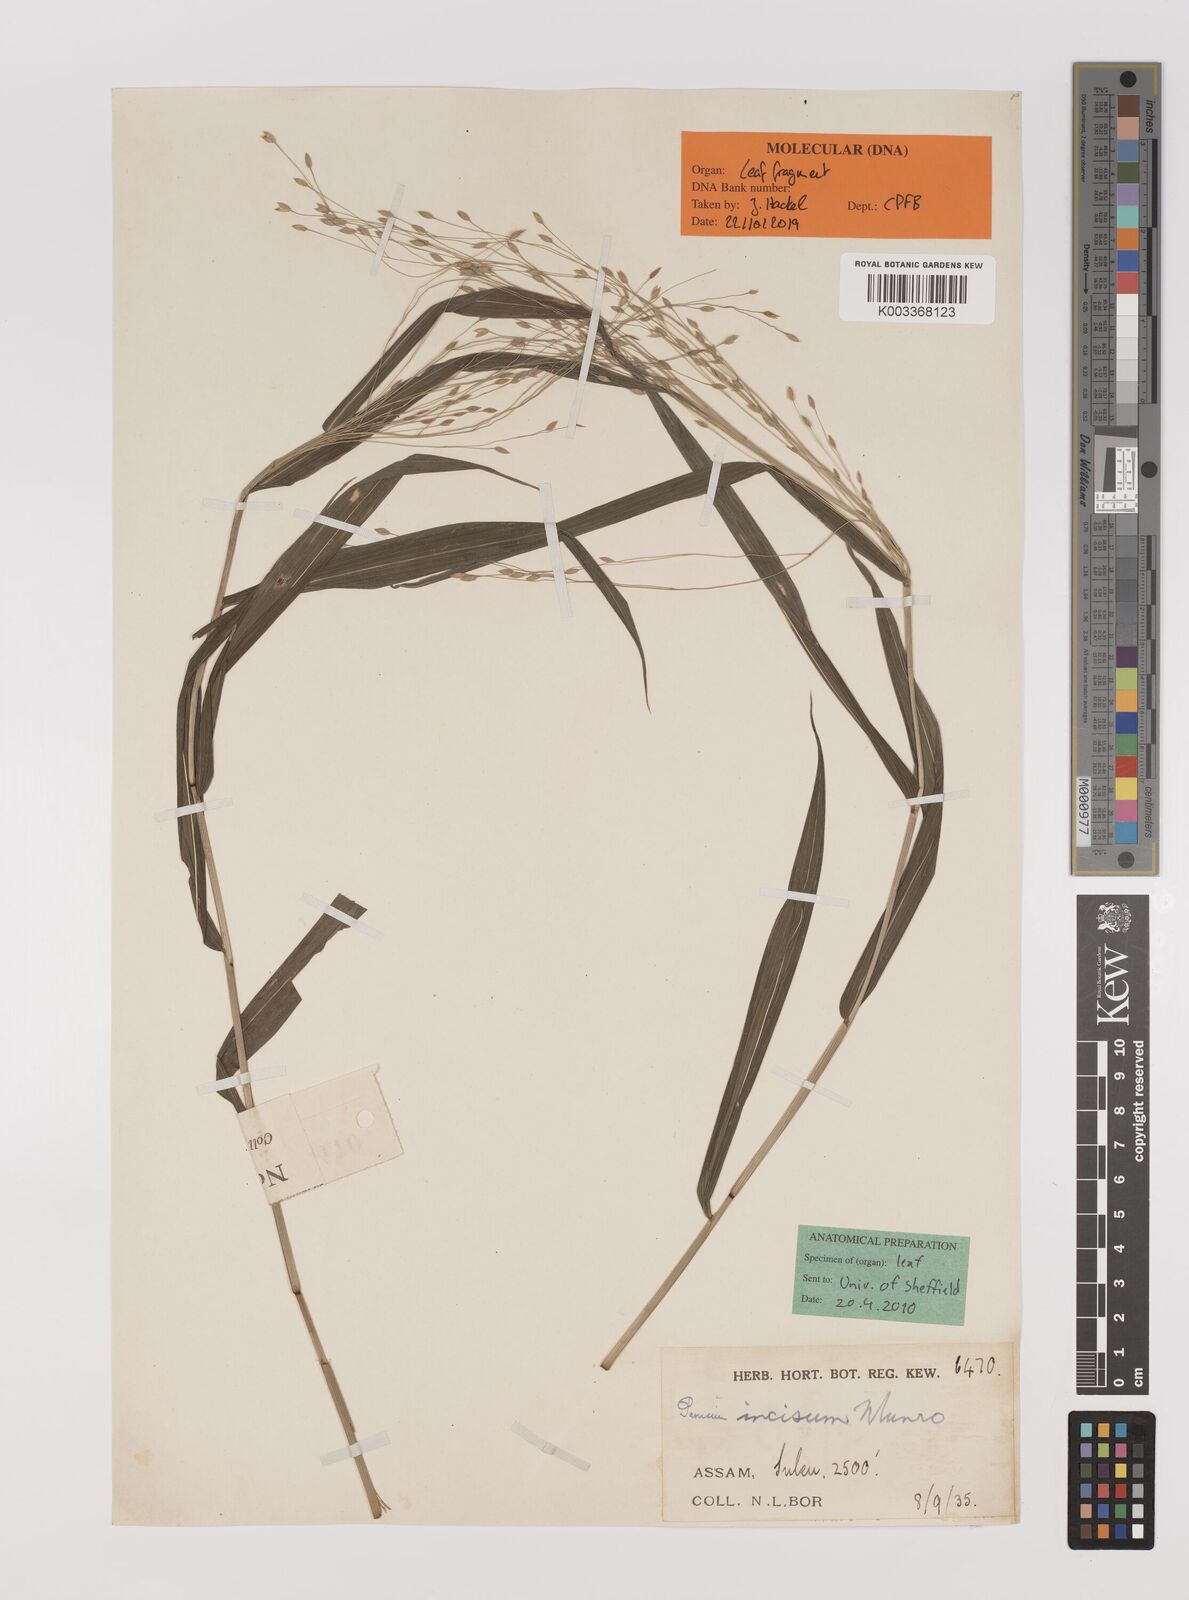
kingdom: Plantae
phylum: Tracheophyta
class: Liliopsida
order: Poales
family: Poaceae
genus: Panicum
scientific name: Panicum incisum
